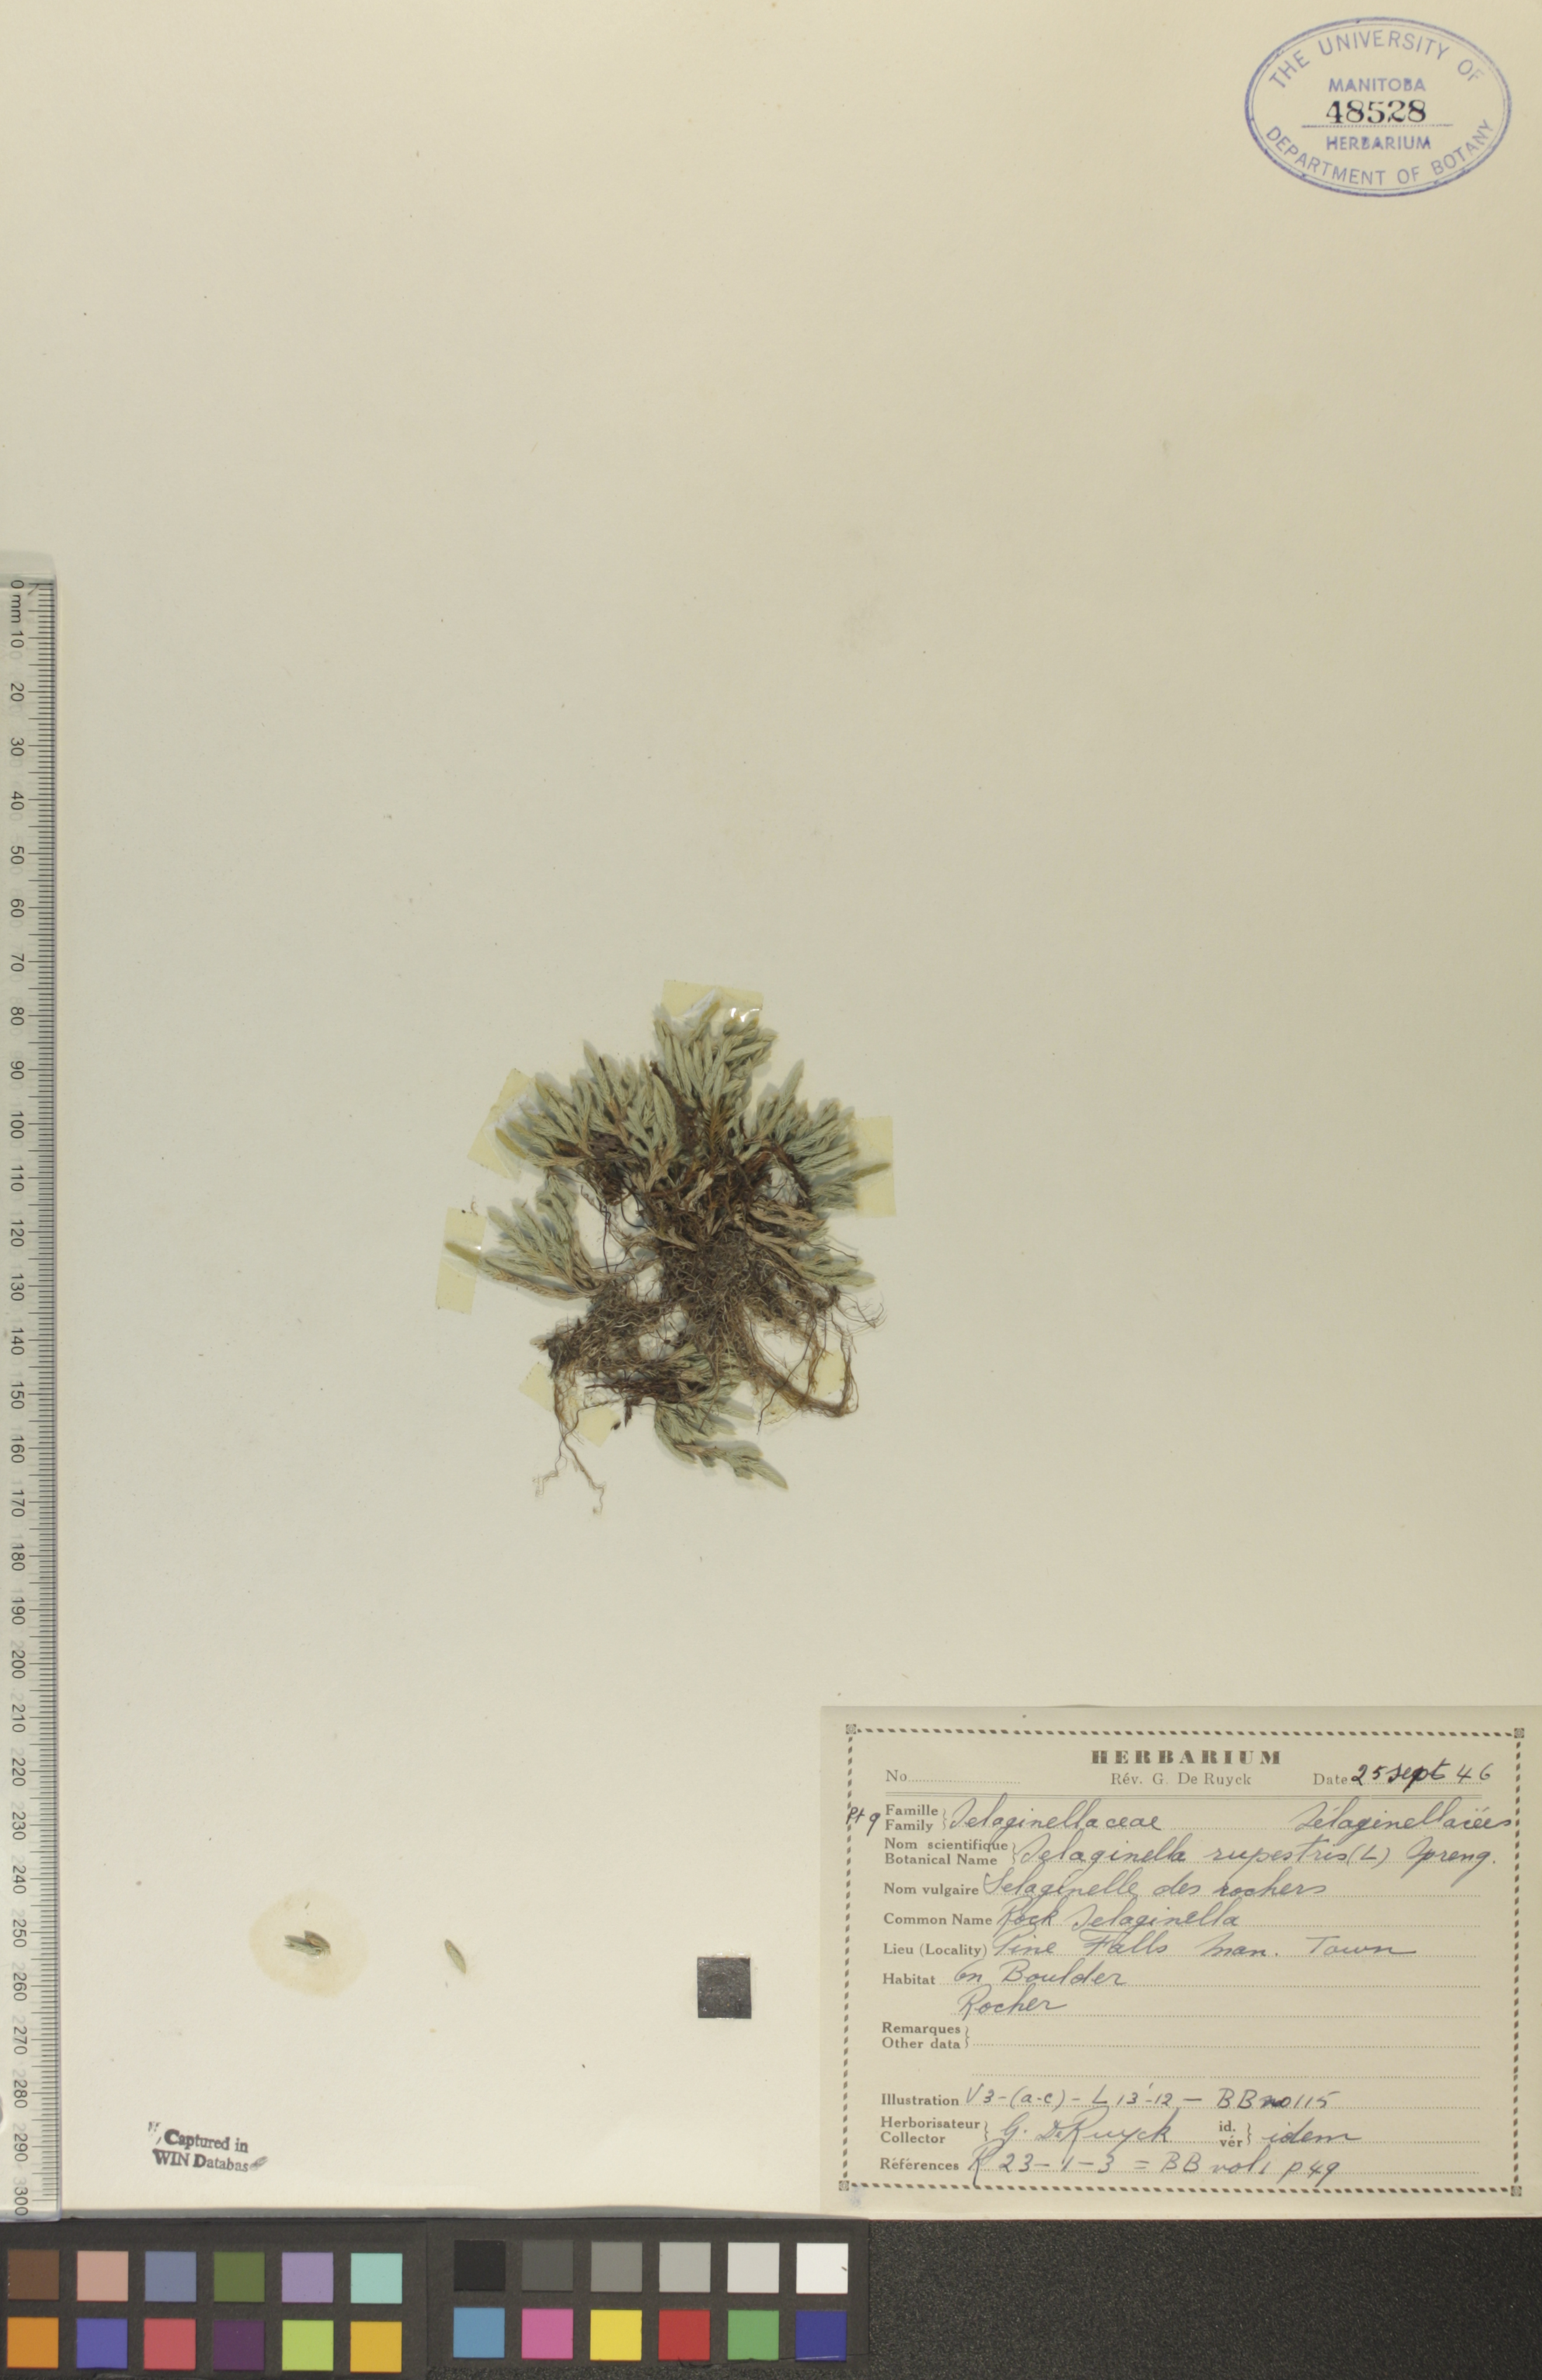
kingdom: Plantae
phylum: Tracheophyta
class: Lycopodiopsida
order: Selaginellales
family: Selaginellaceae
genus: Selaginella
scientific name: Selaginella rupestris
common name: Dwarf spikemoss
